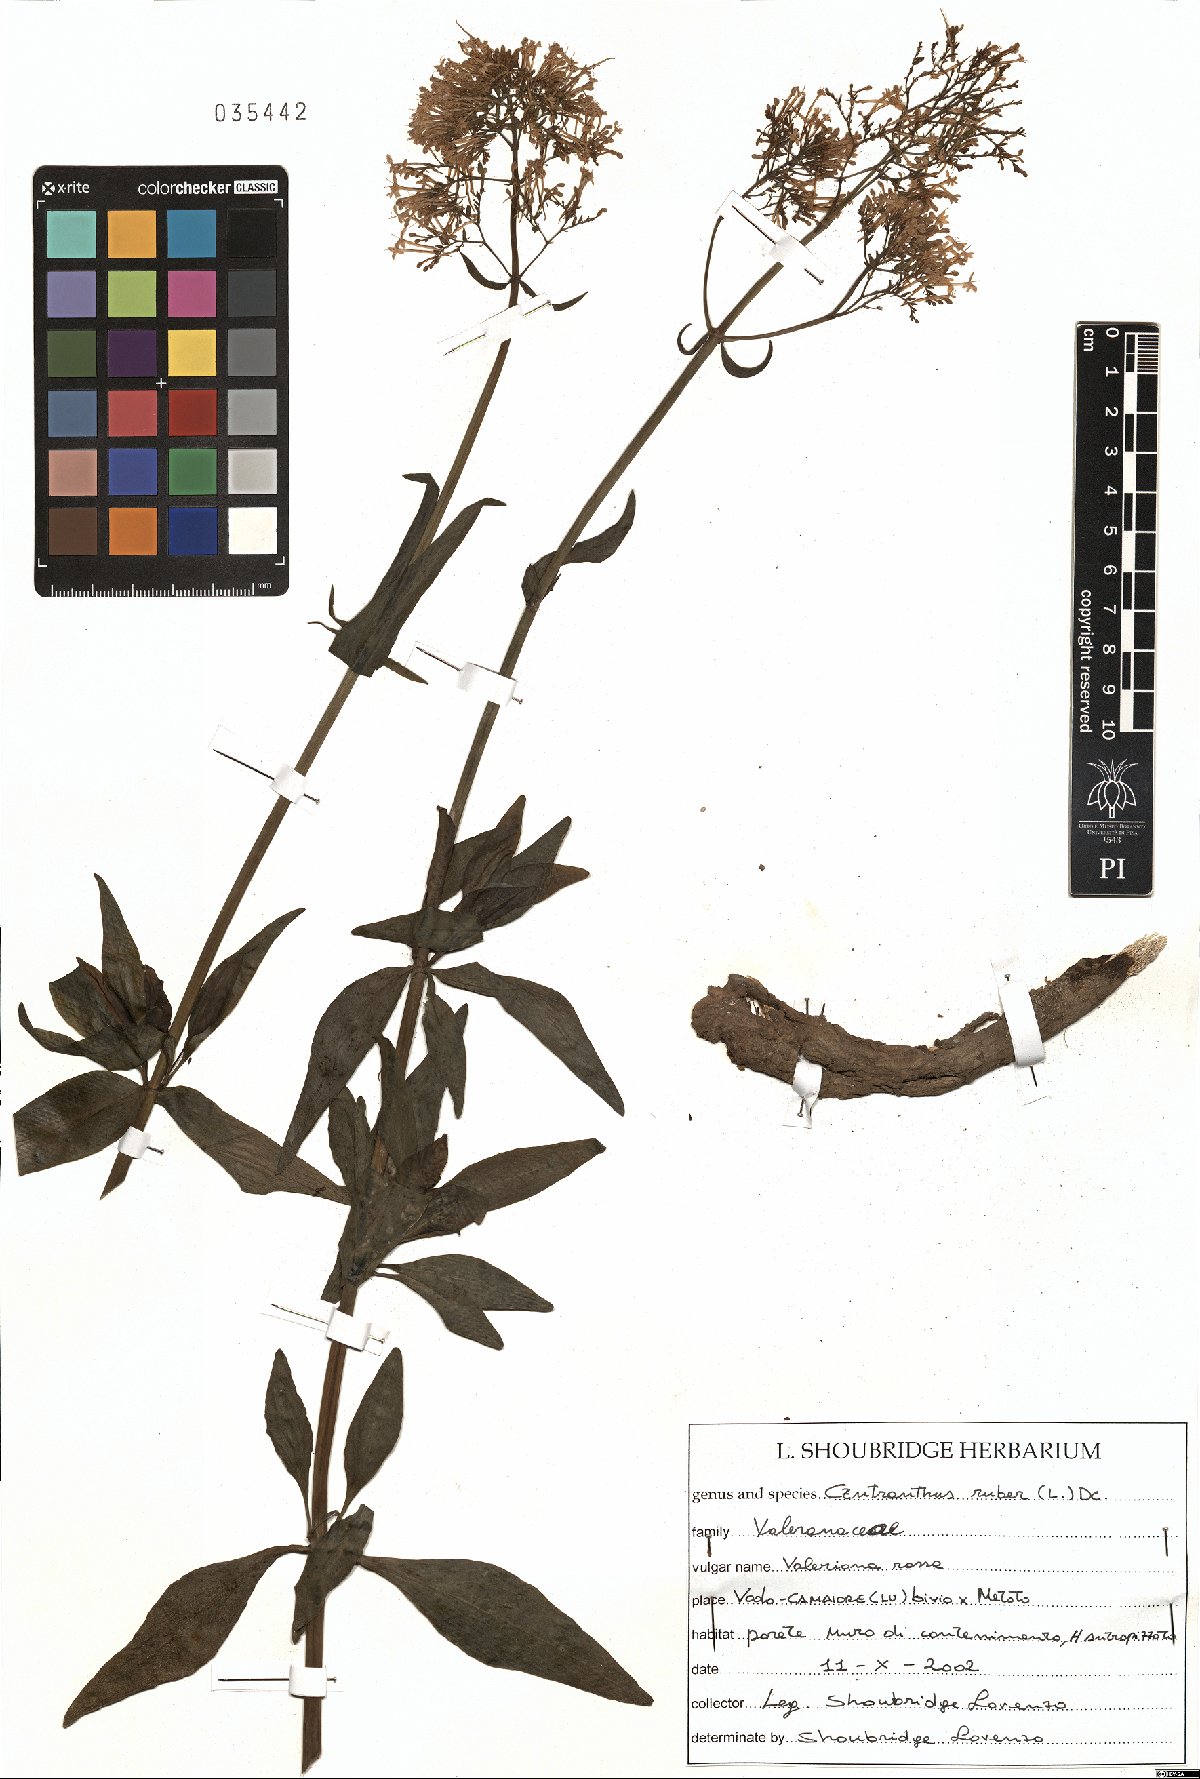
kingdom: Plantae
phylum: Tracheophyta
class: Magnoliopsida
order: Dipsacales
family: Caprifoliaceae
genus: Centranthus
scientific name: Centranthus ruber
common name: Red valerian
